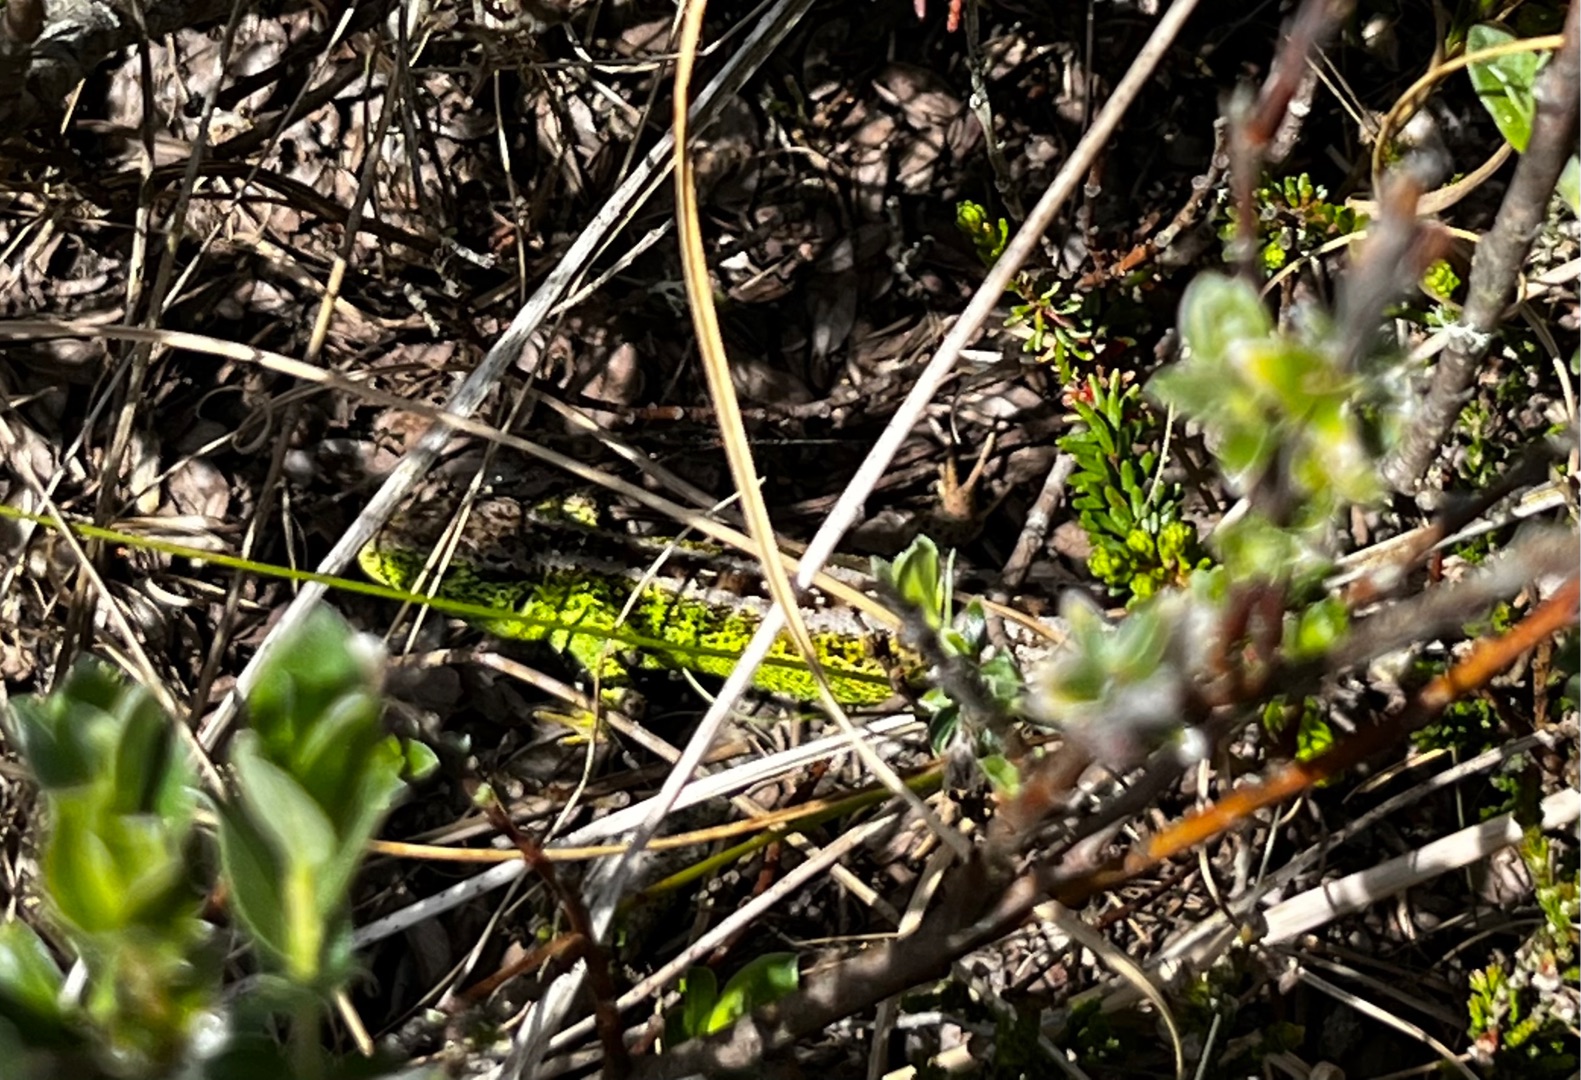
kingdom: Animalia
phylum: Chordata
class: Squamata
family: Lacertidae
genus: Lacerta
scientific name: Lacerta agilis
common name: Markfirben
